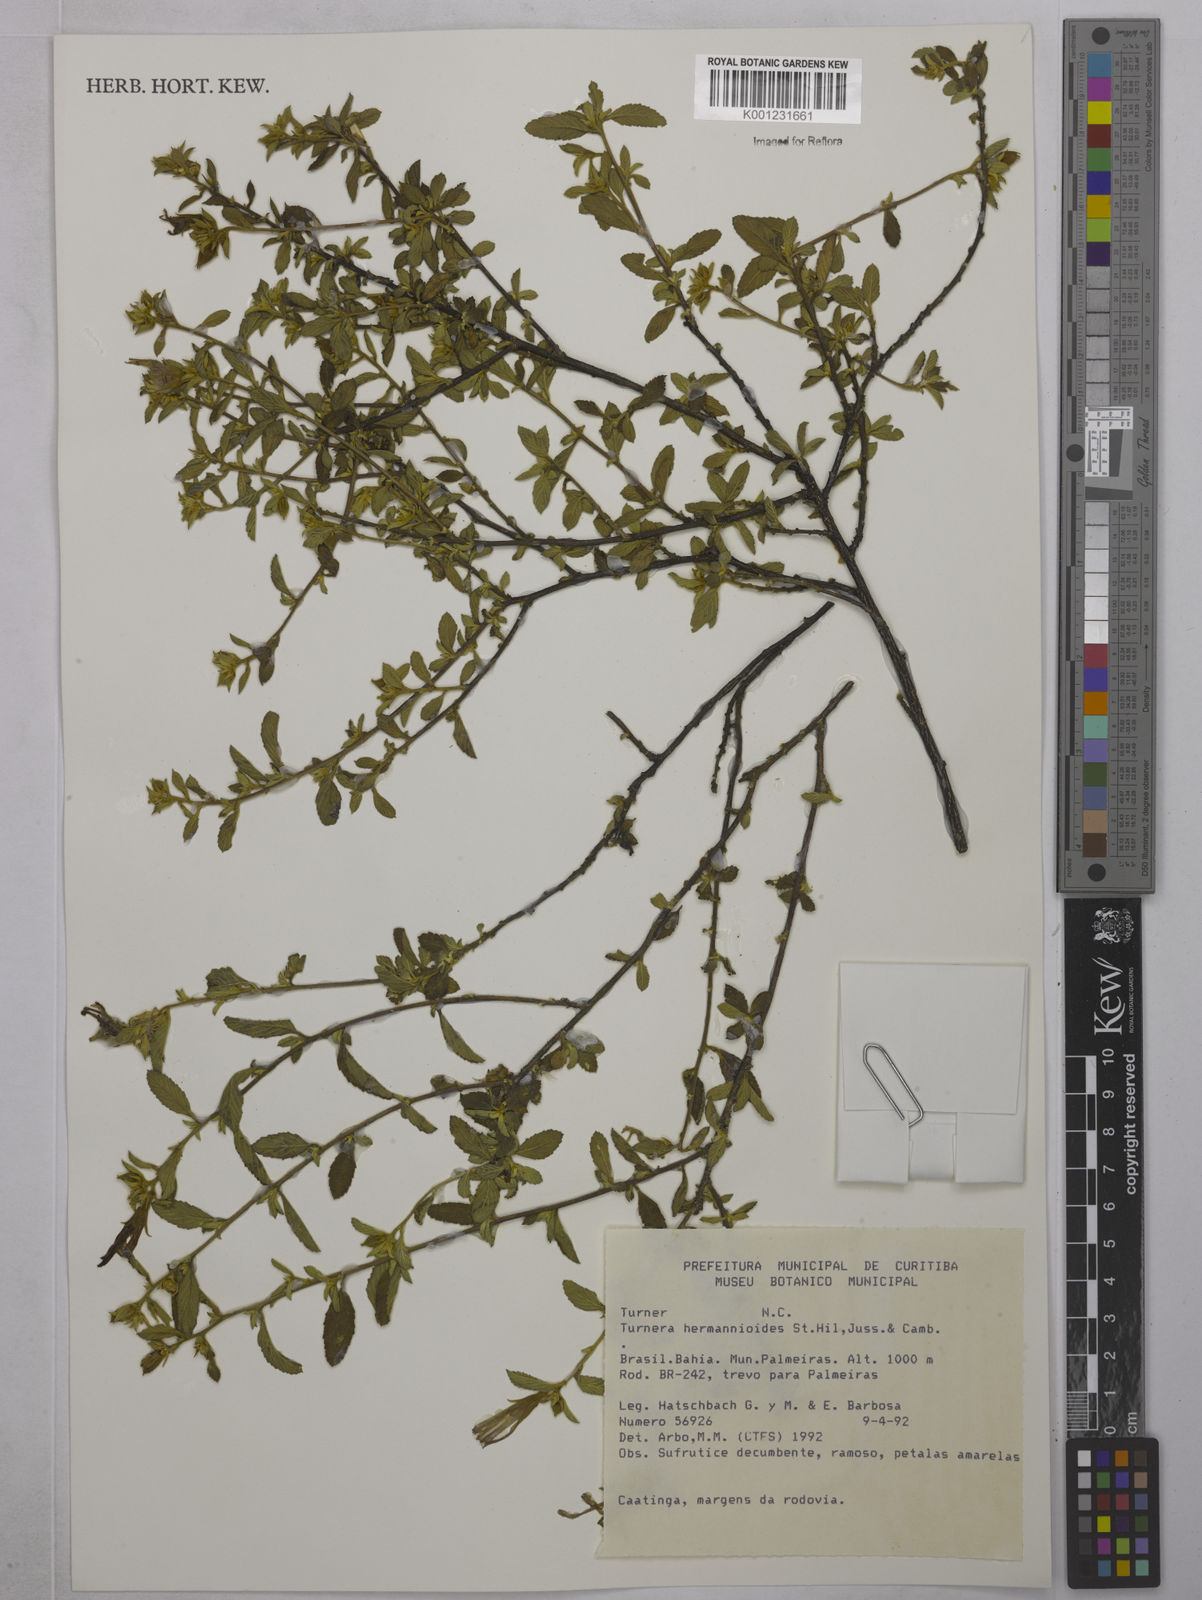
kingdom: Plantae
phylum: Tracheophyta
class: Magnoliopsida
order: Malpighiales
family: Turneraceae
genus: Turnera
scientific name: Turnera hermannioides
